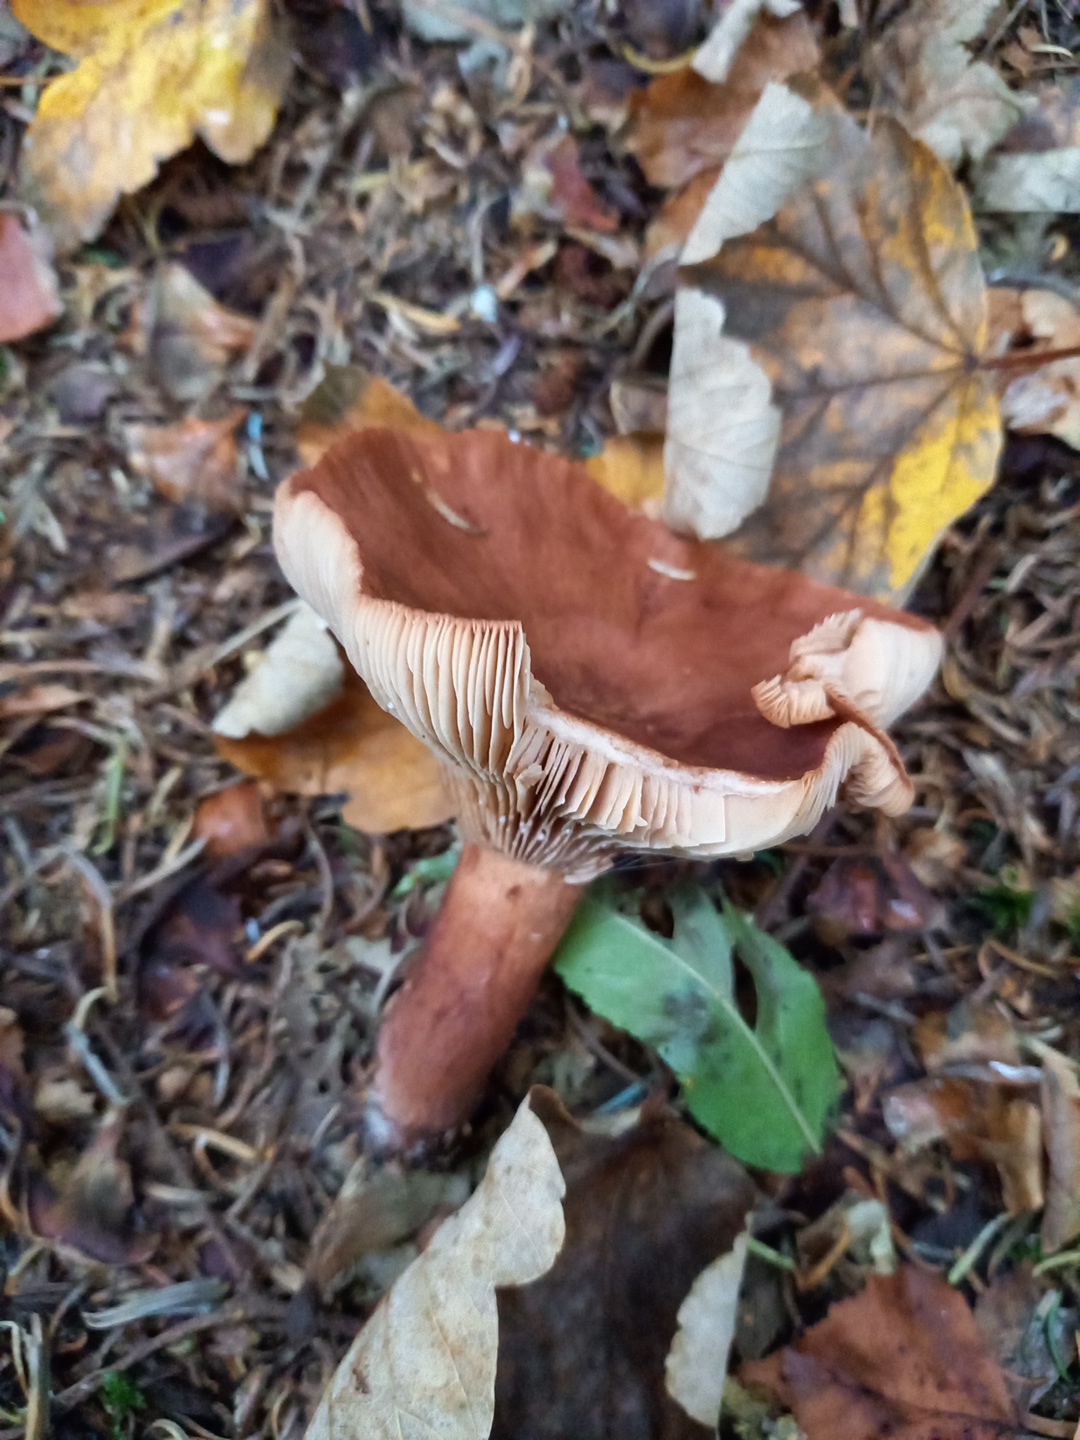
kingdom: Fungi
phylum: Basidiomycota
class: Agaricomycetes
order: Russulales
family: Russulaceae
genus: Lactarius
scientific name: Lactarius rufus
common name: rødbrun mælkehat
